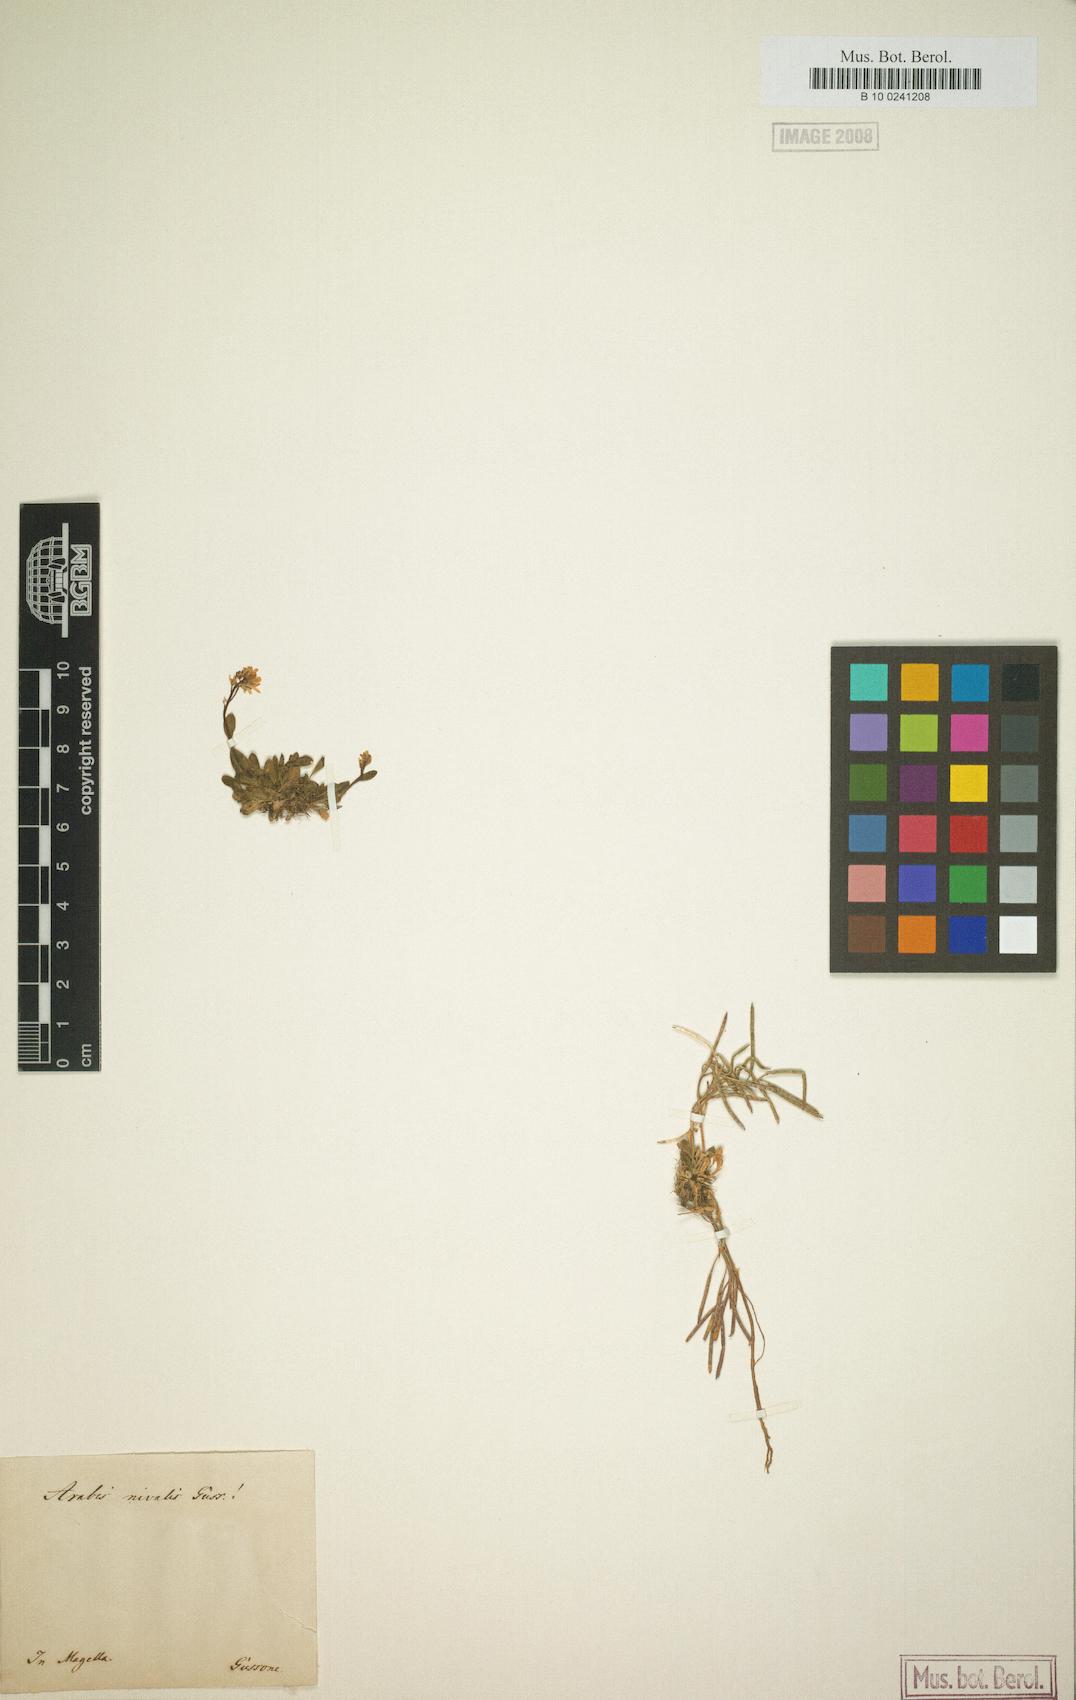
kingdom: Plantae
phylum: Tracheophyta
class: Magnoliopsida
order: Brassicales
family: Brassicaceae
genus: Arabis
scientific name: Arabis surculosa
